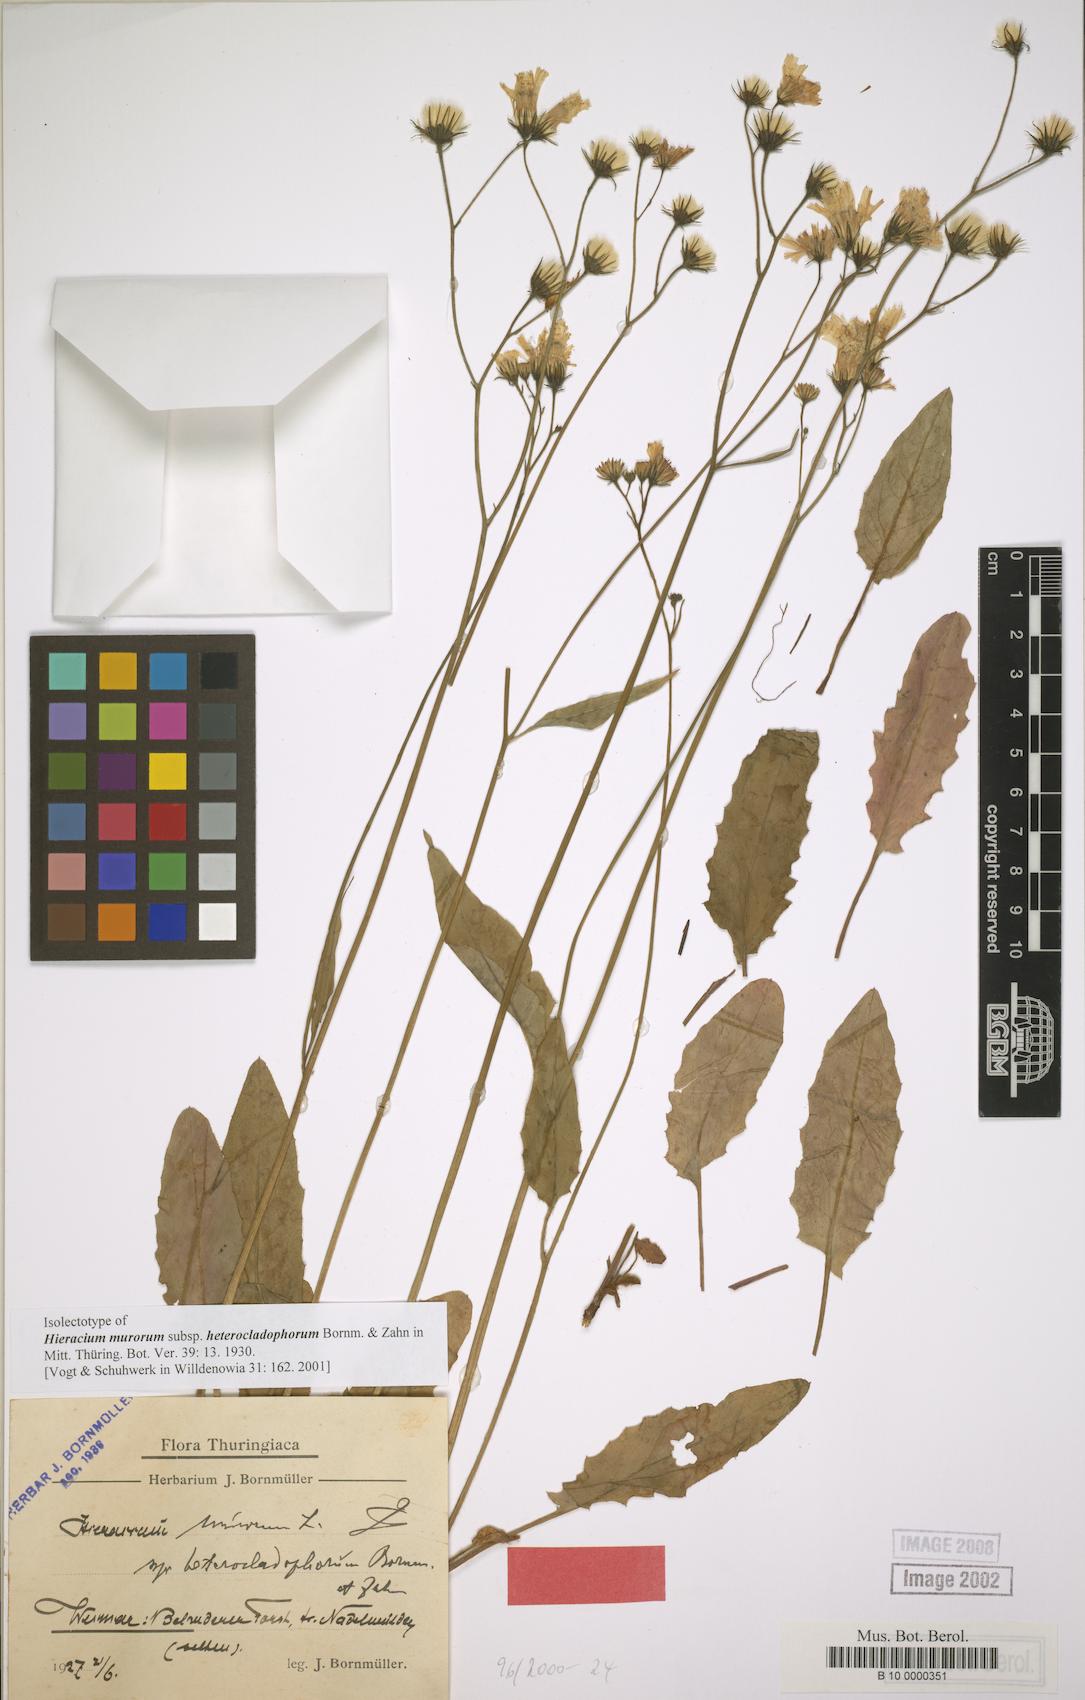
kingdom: Plantae
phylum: Tracheophyta
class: Magnoliopsida
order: Asterales
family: Asteraceae
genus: Hieracium
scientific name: Hieracium murorum
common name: Wall hawkweed
